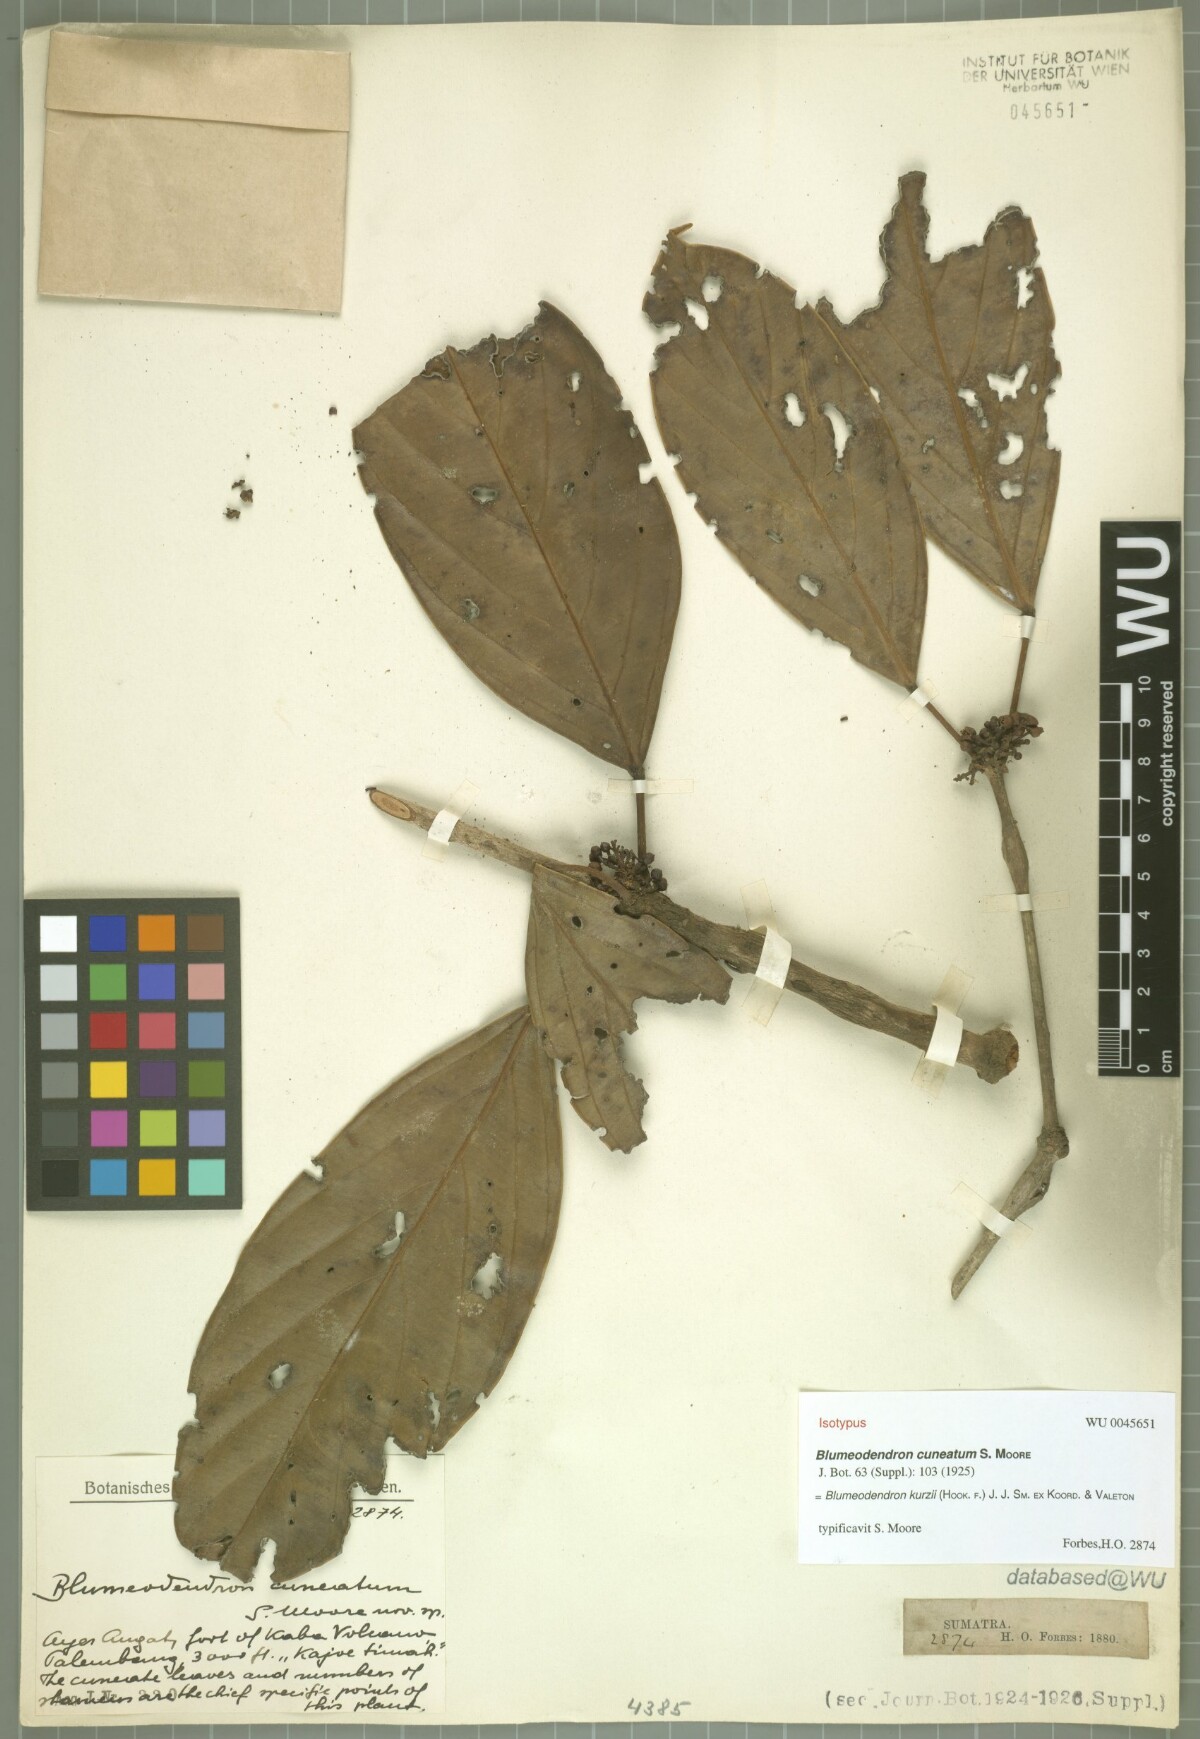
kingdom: Plantae
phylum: Tracheophyta
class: Magnoliopsida
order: Malpighiales
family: Euphorbiaceae
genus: Blumeodendron
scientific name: Blumeodendron kurzii
